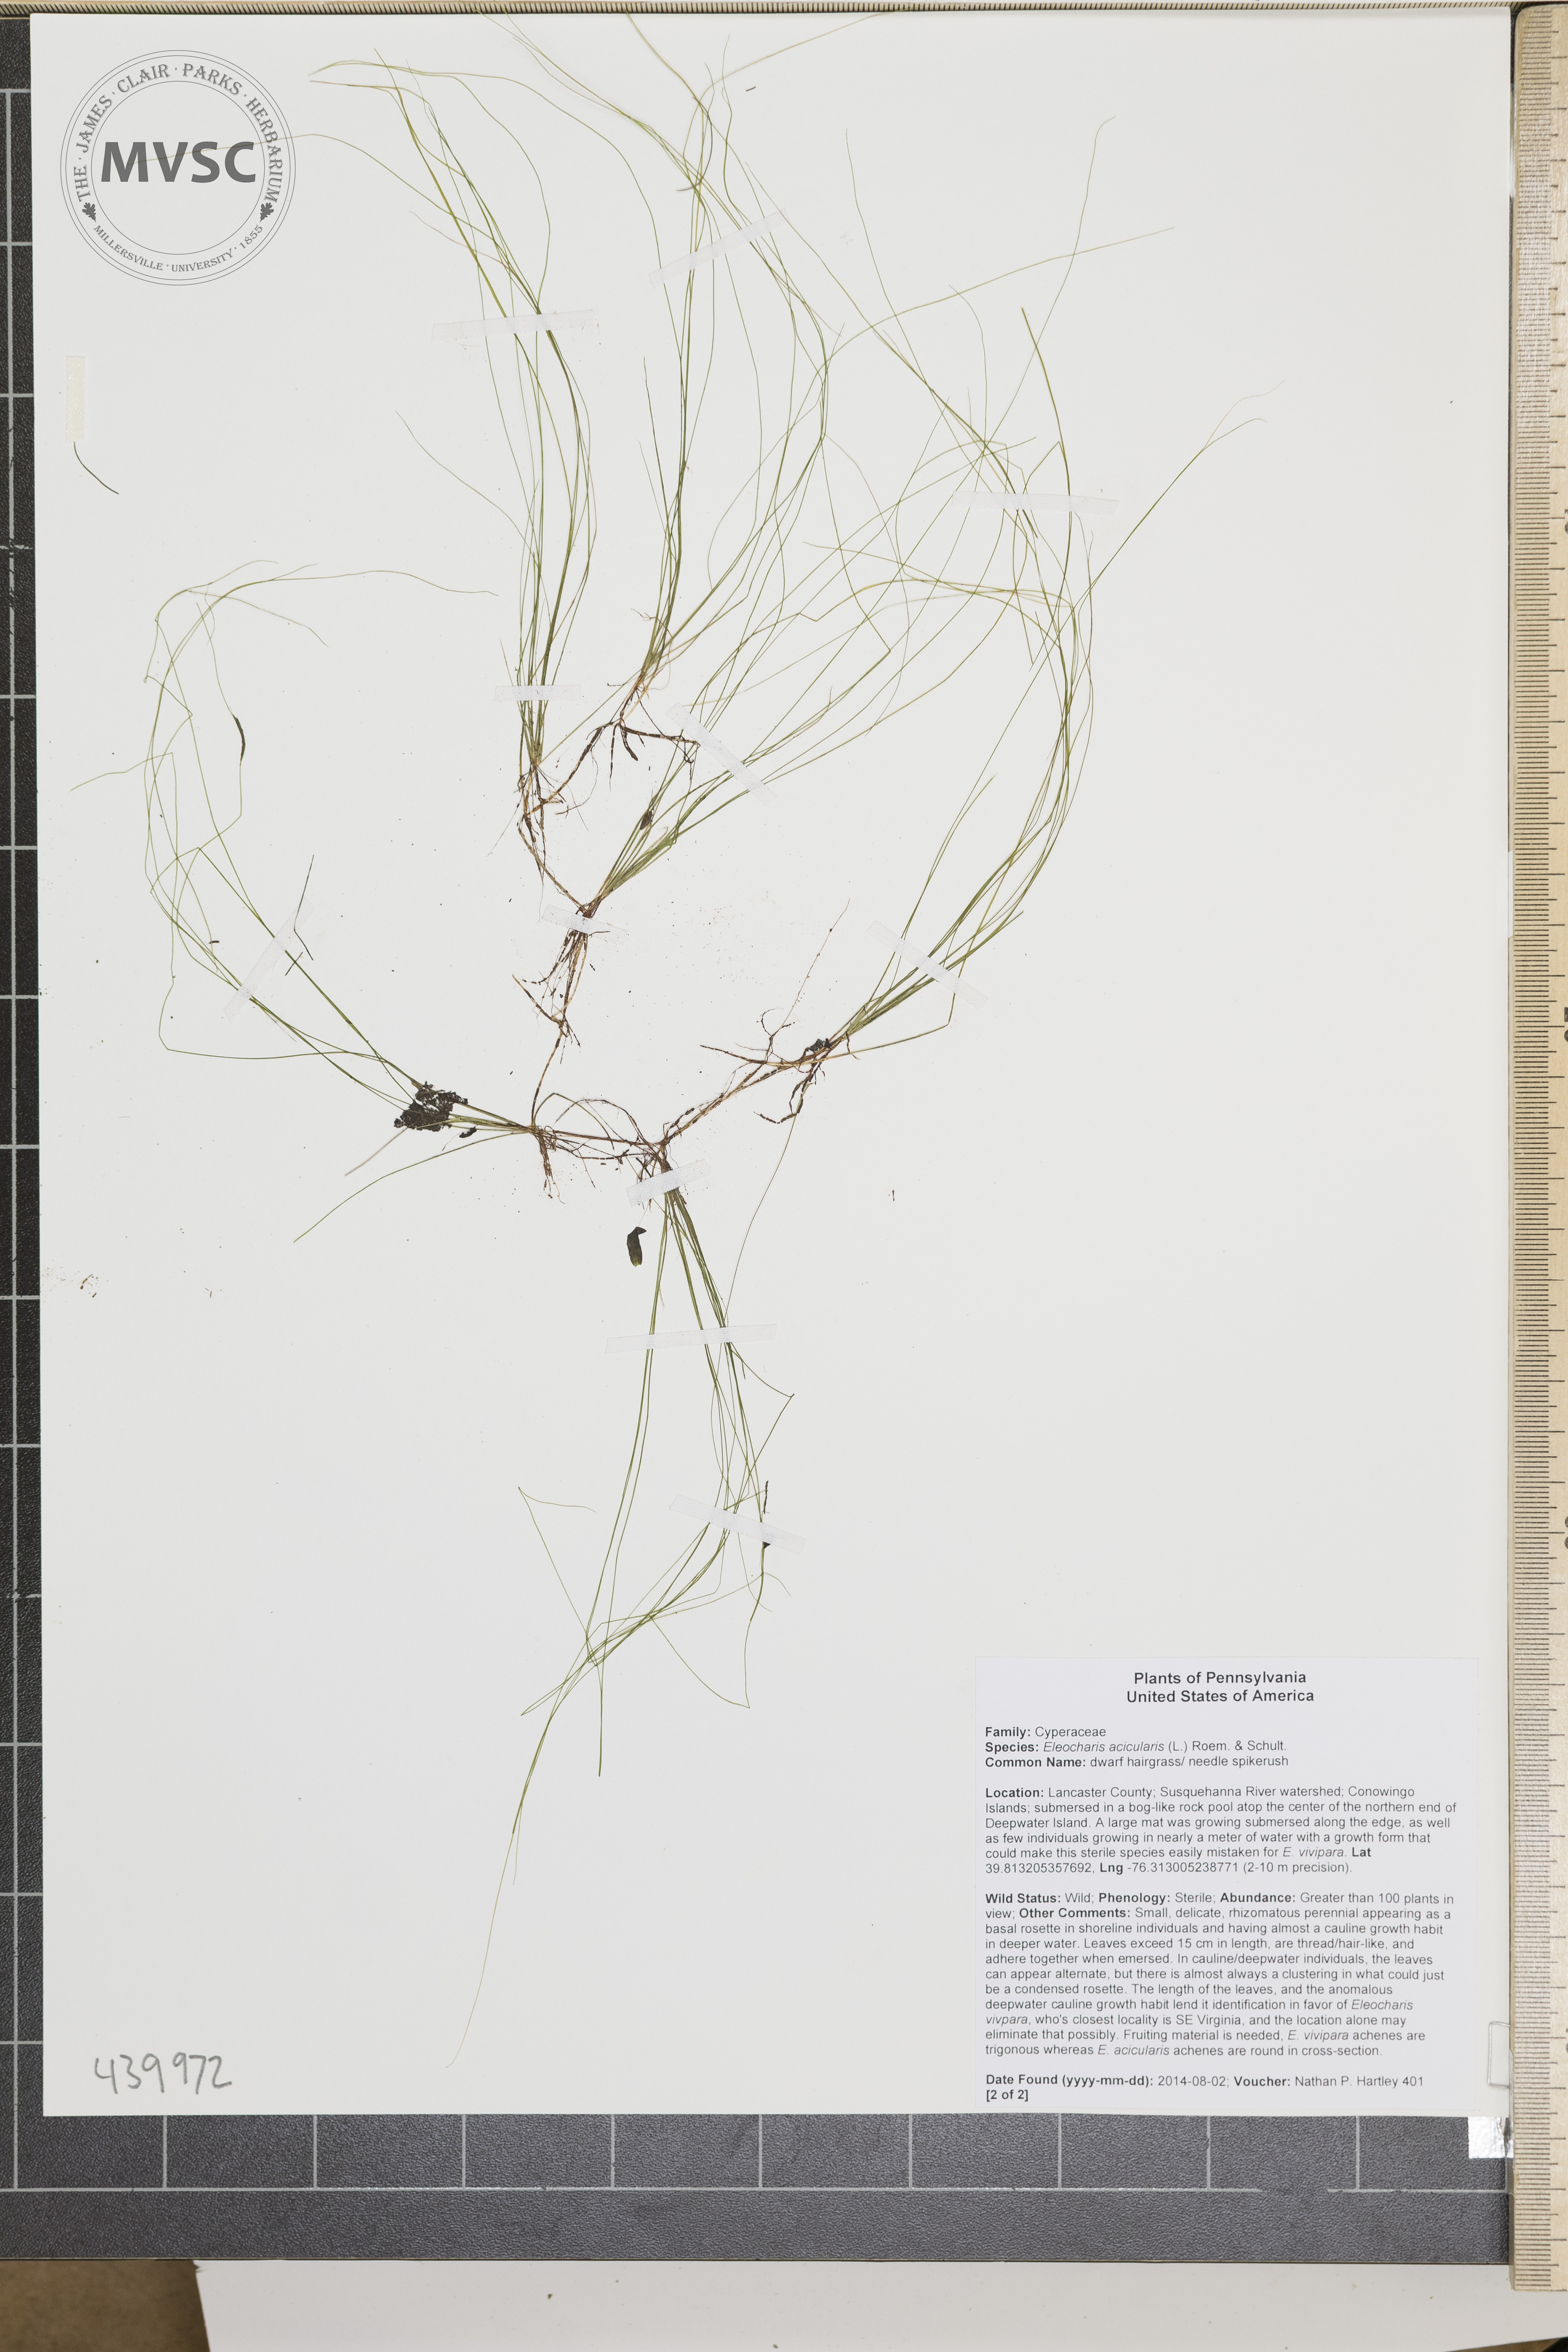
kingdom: Plantae
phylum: Tracheophyta
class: Liliopsida
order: Poales
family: Cyperaceae
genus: Eleocharis
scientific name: Eleocharis acicularis
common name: Dwarf hairgrass
